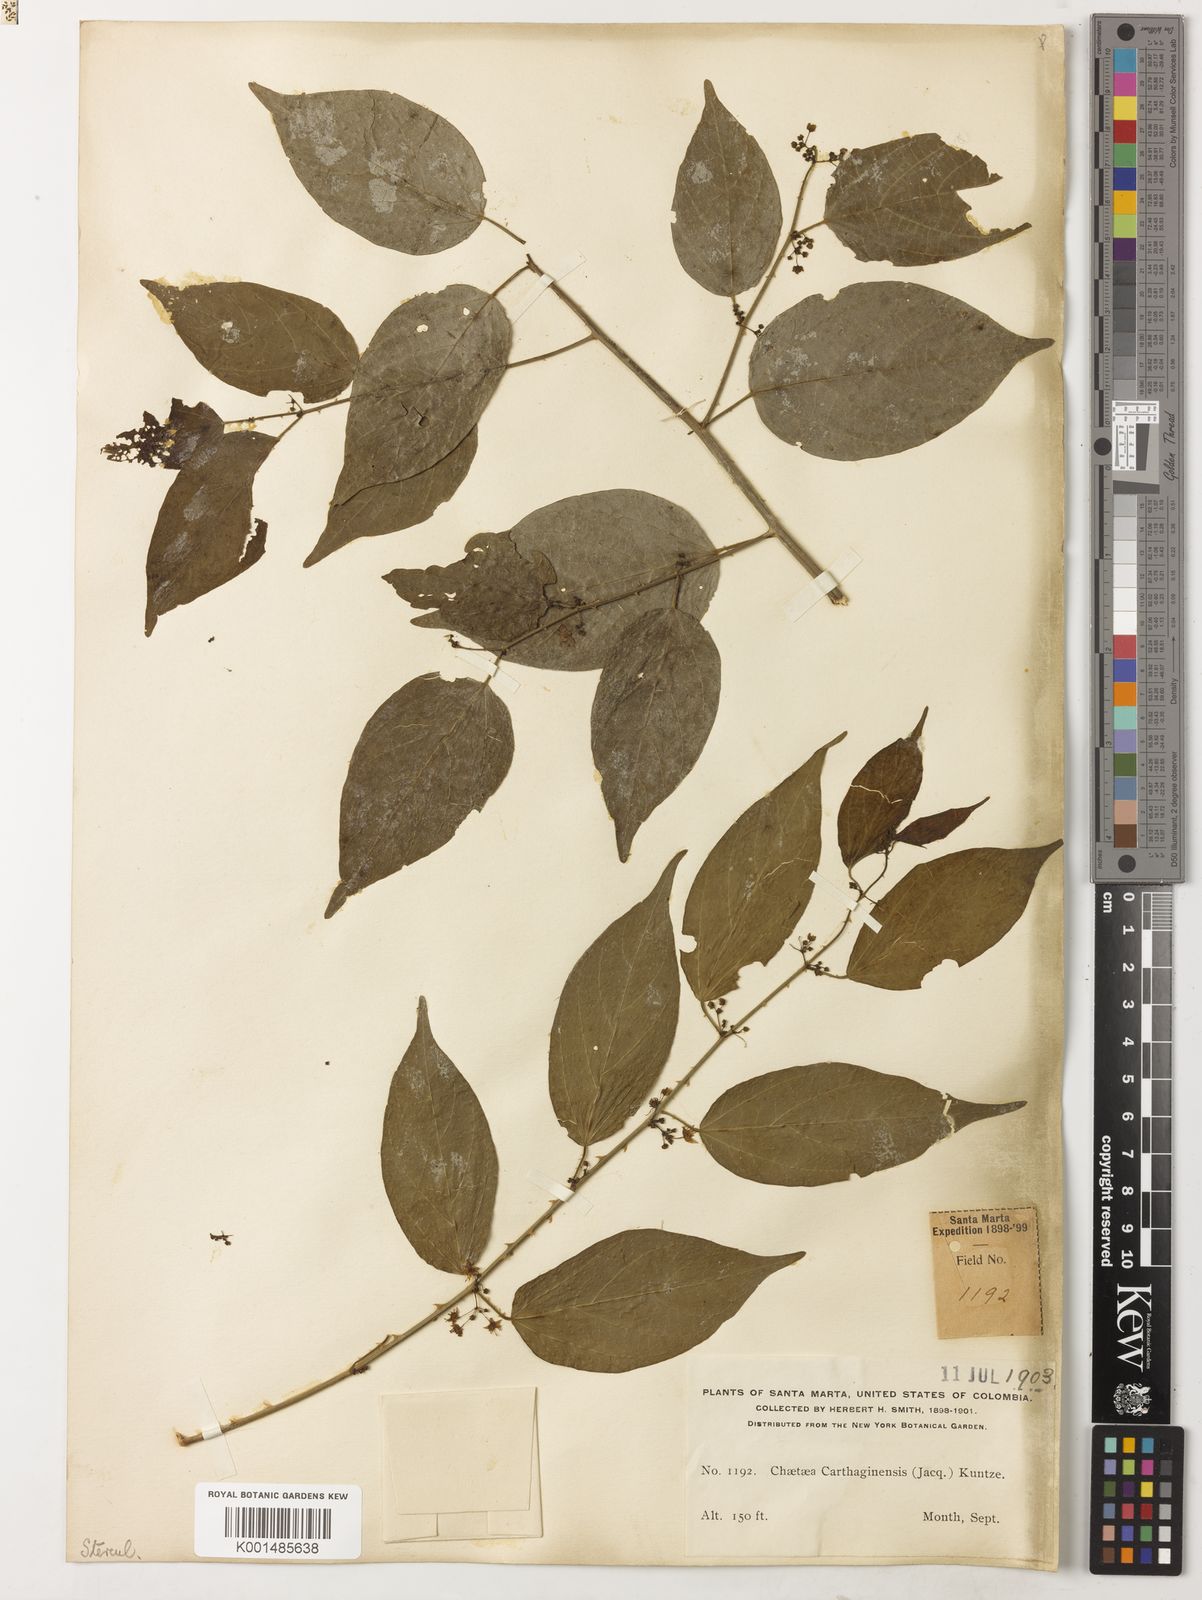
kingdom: Plantae
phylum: Tracheophyta
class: Magnoliopsida
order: Malvales
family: Malvaceae
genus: Byttneria
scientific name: Byttneria aculeata
